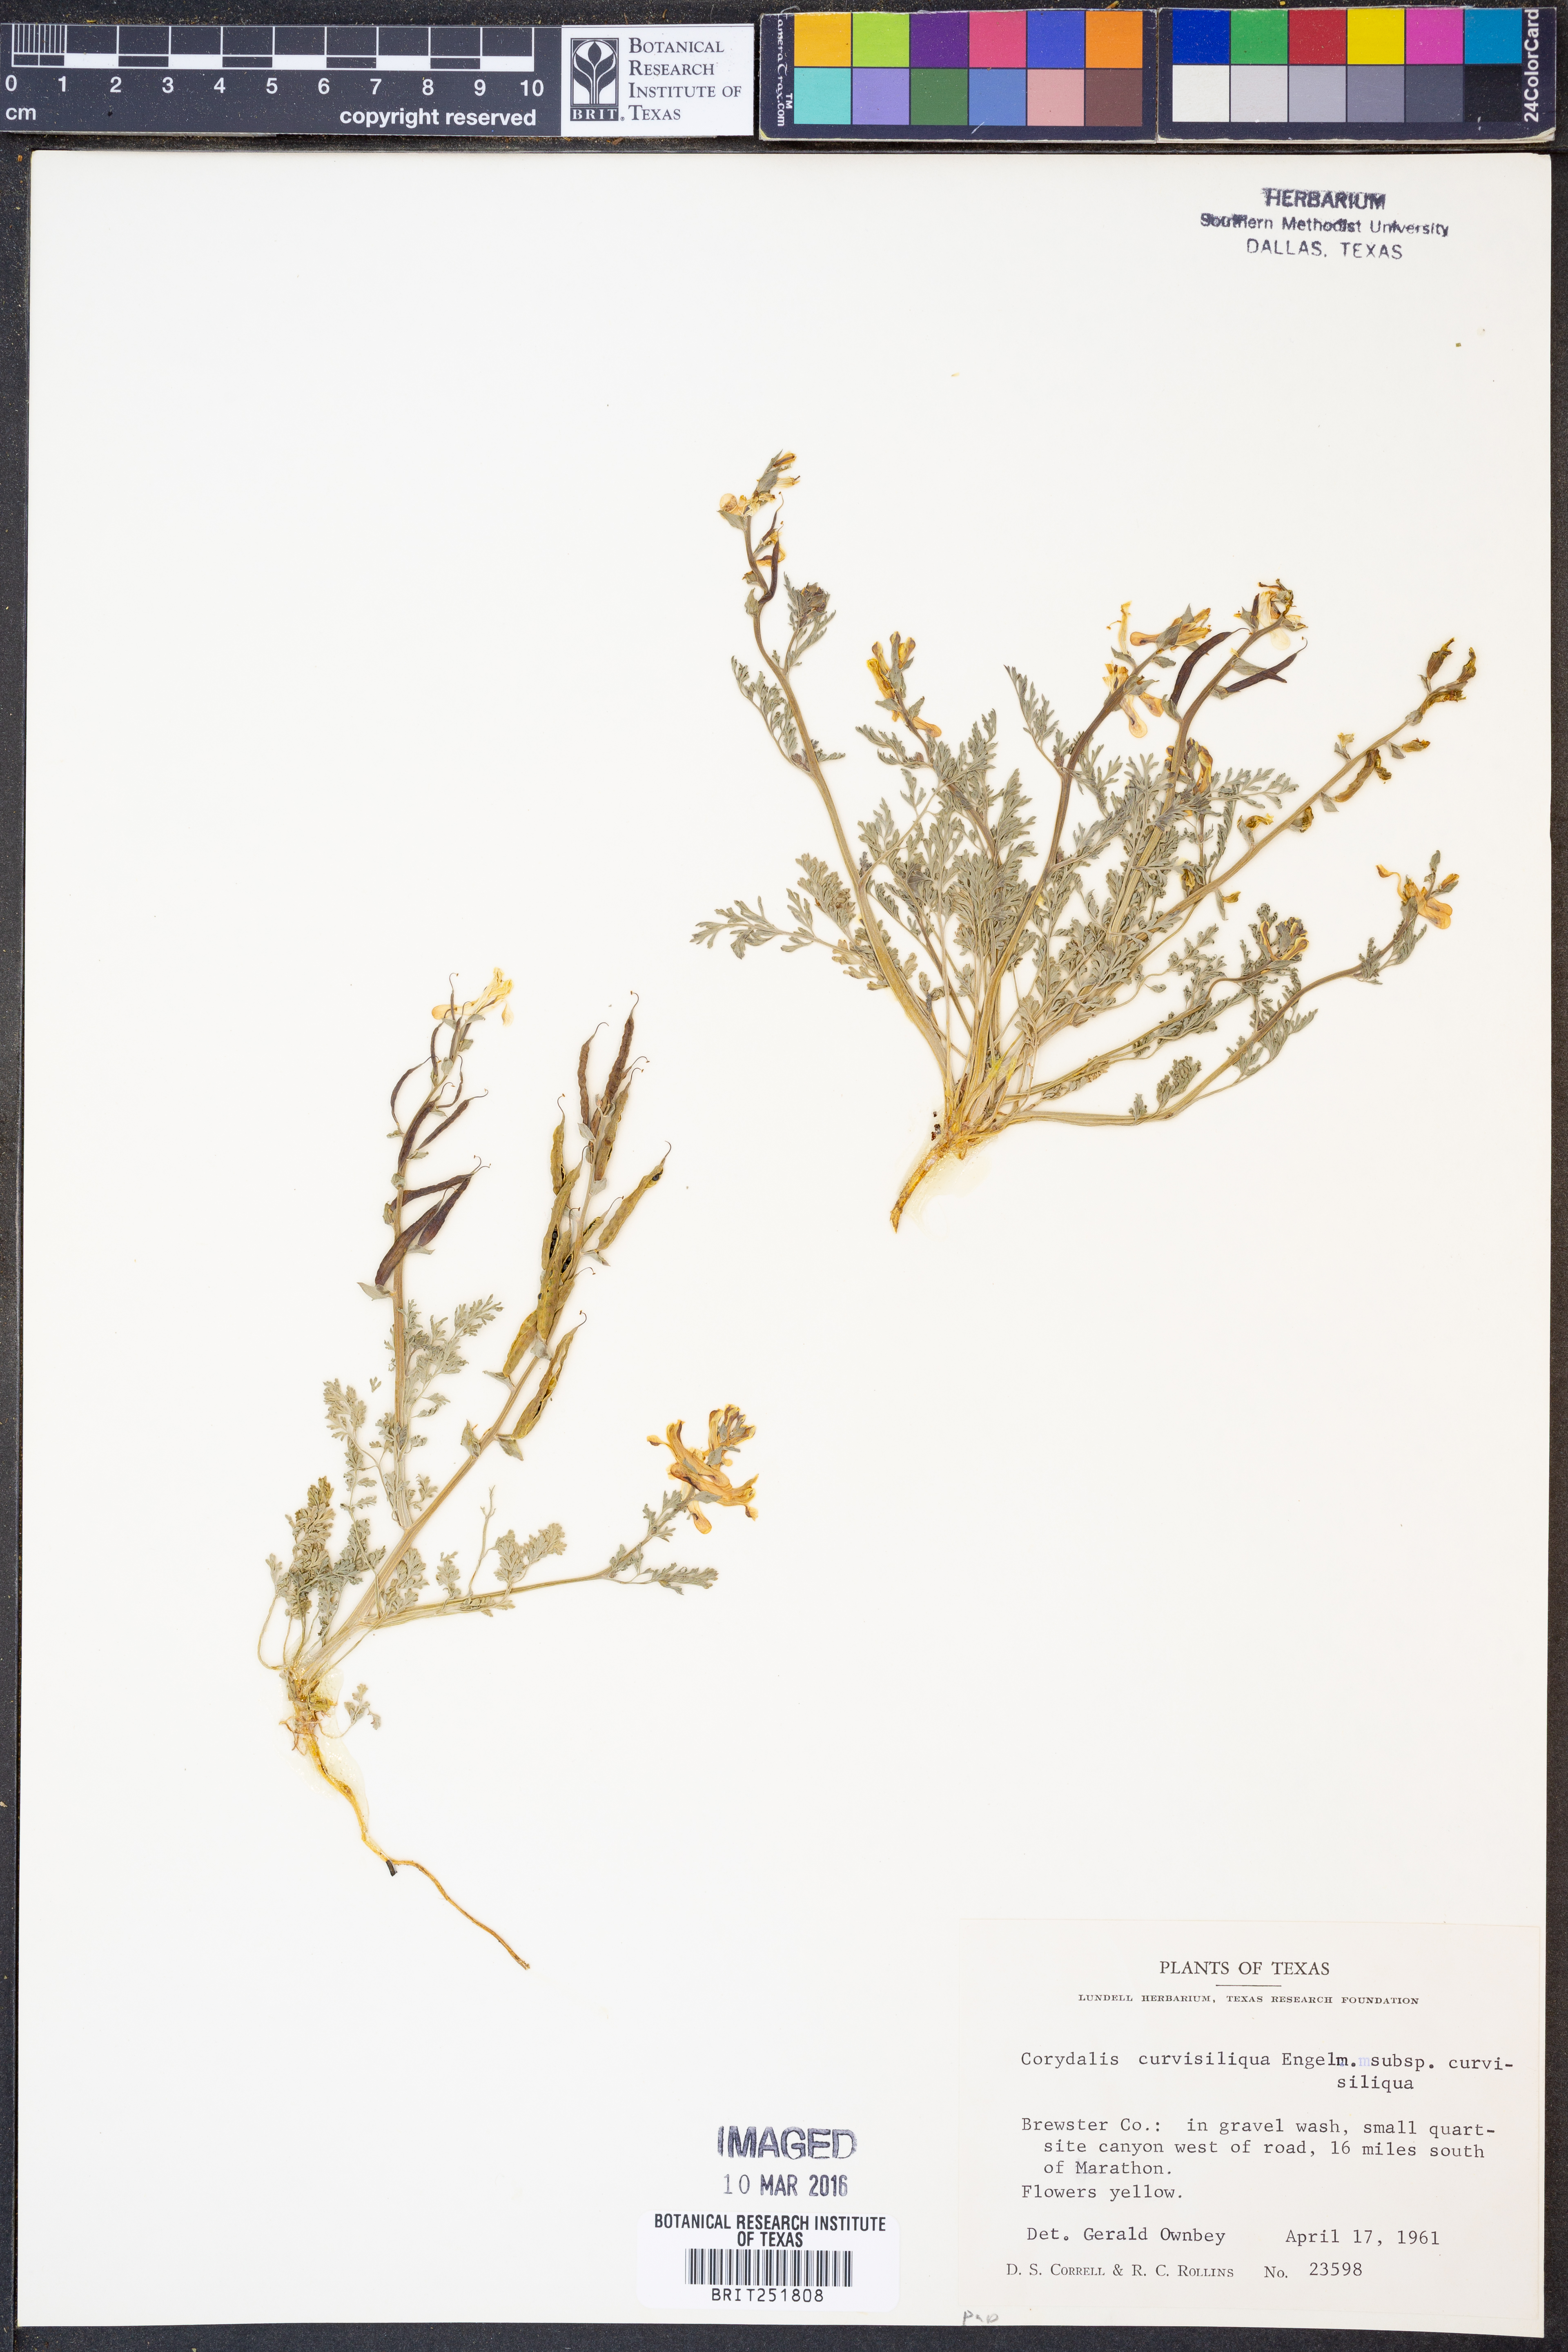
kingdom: Plantae
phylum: Tracheophyta
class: Magnoliopsida
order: Ranunculales
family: Papaveraceae
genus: Corydalis
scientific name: Corydalis curvisiliqua
